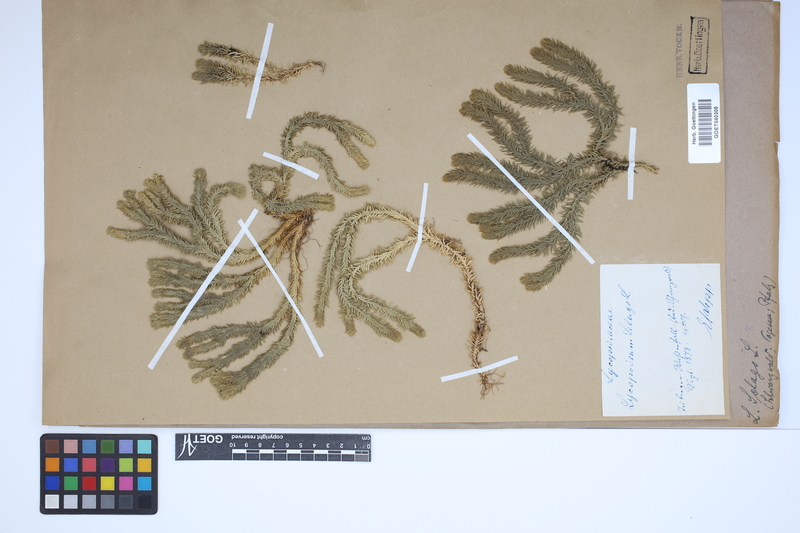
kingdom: Plantae
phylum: Tracheophyta
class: Lycopodiopsida
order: Lycopodiales
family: Lycopodiaceae
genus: Huperzia
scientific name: Huperzia selago
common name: Northern firmoss
